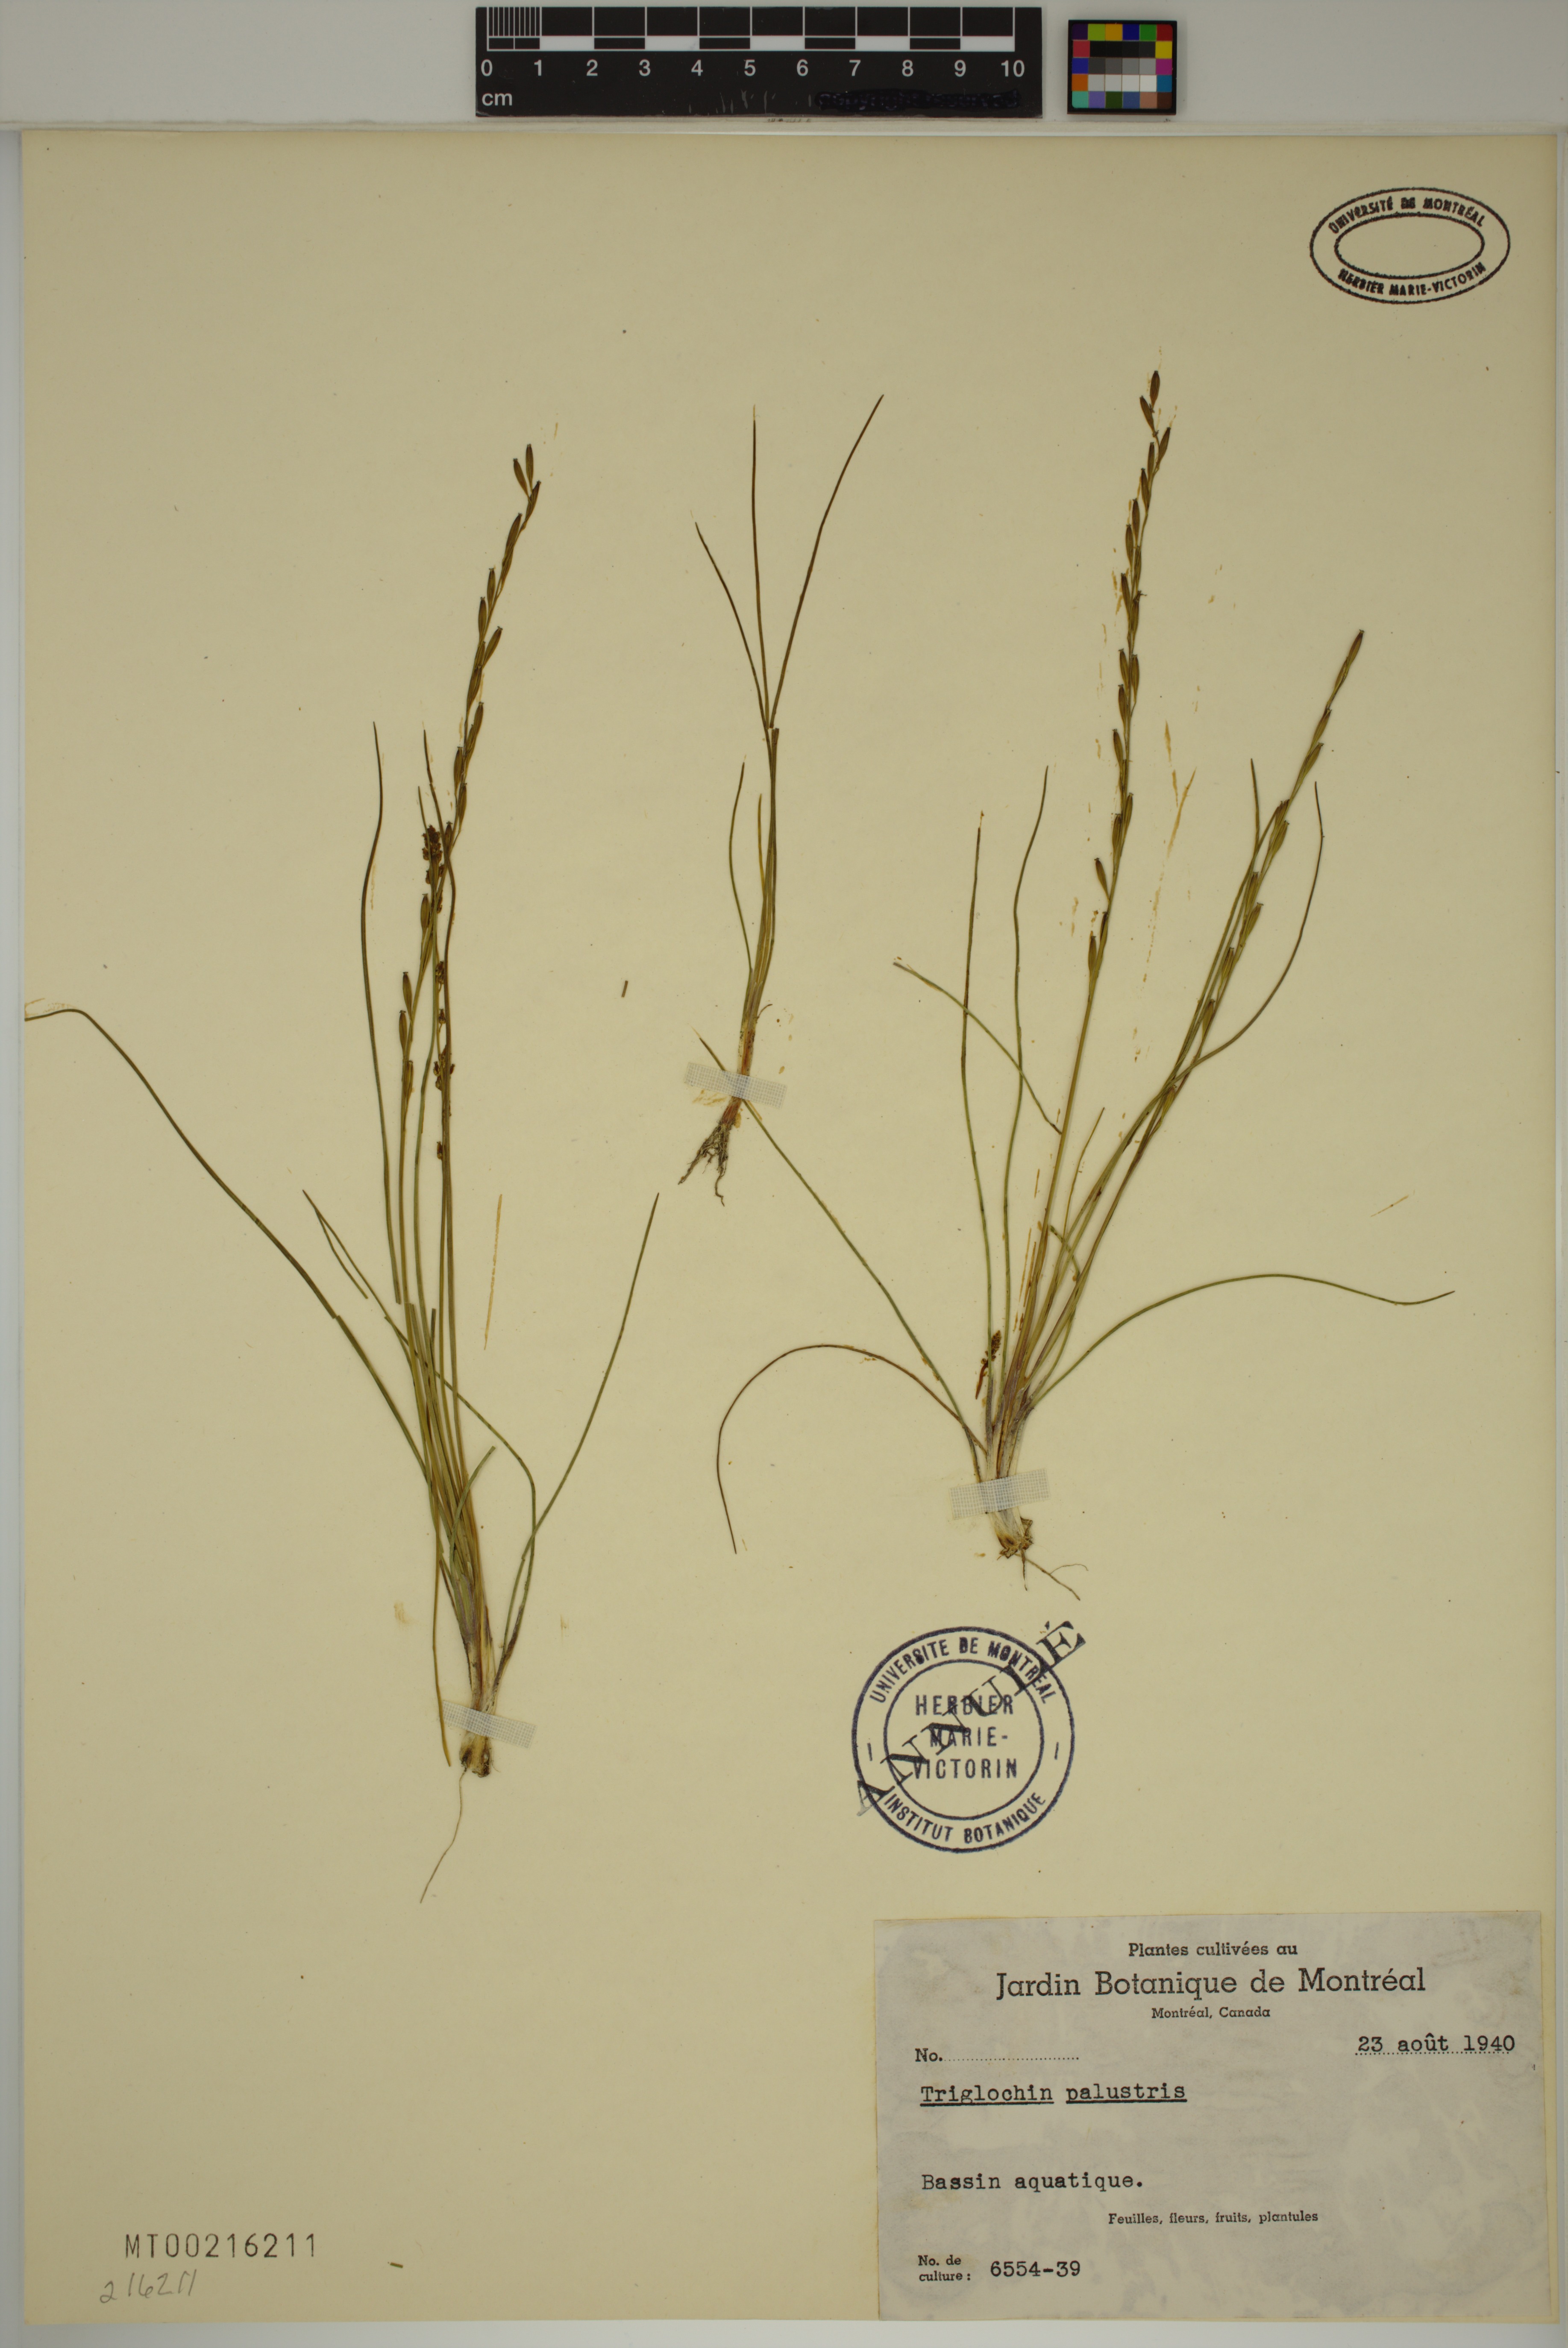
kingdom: Plantae
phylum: Tracheophyta
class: Liliopsida
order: Alismatales
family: Juncaginaceae
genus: Triglochin
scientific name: Triglochin palustris
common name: Marsh arrowgrass
